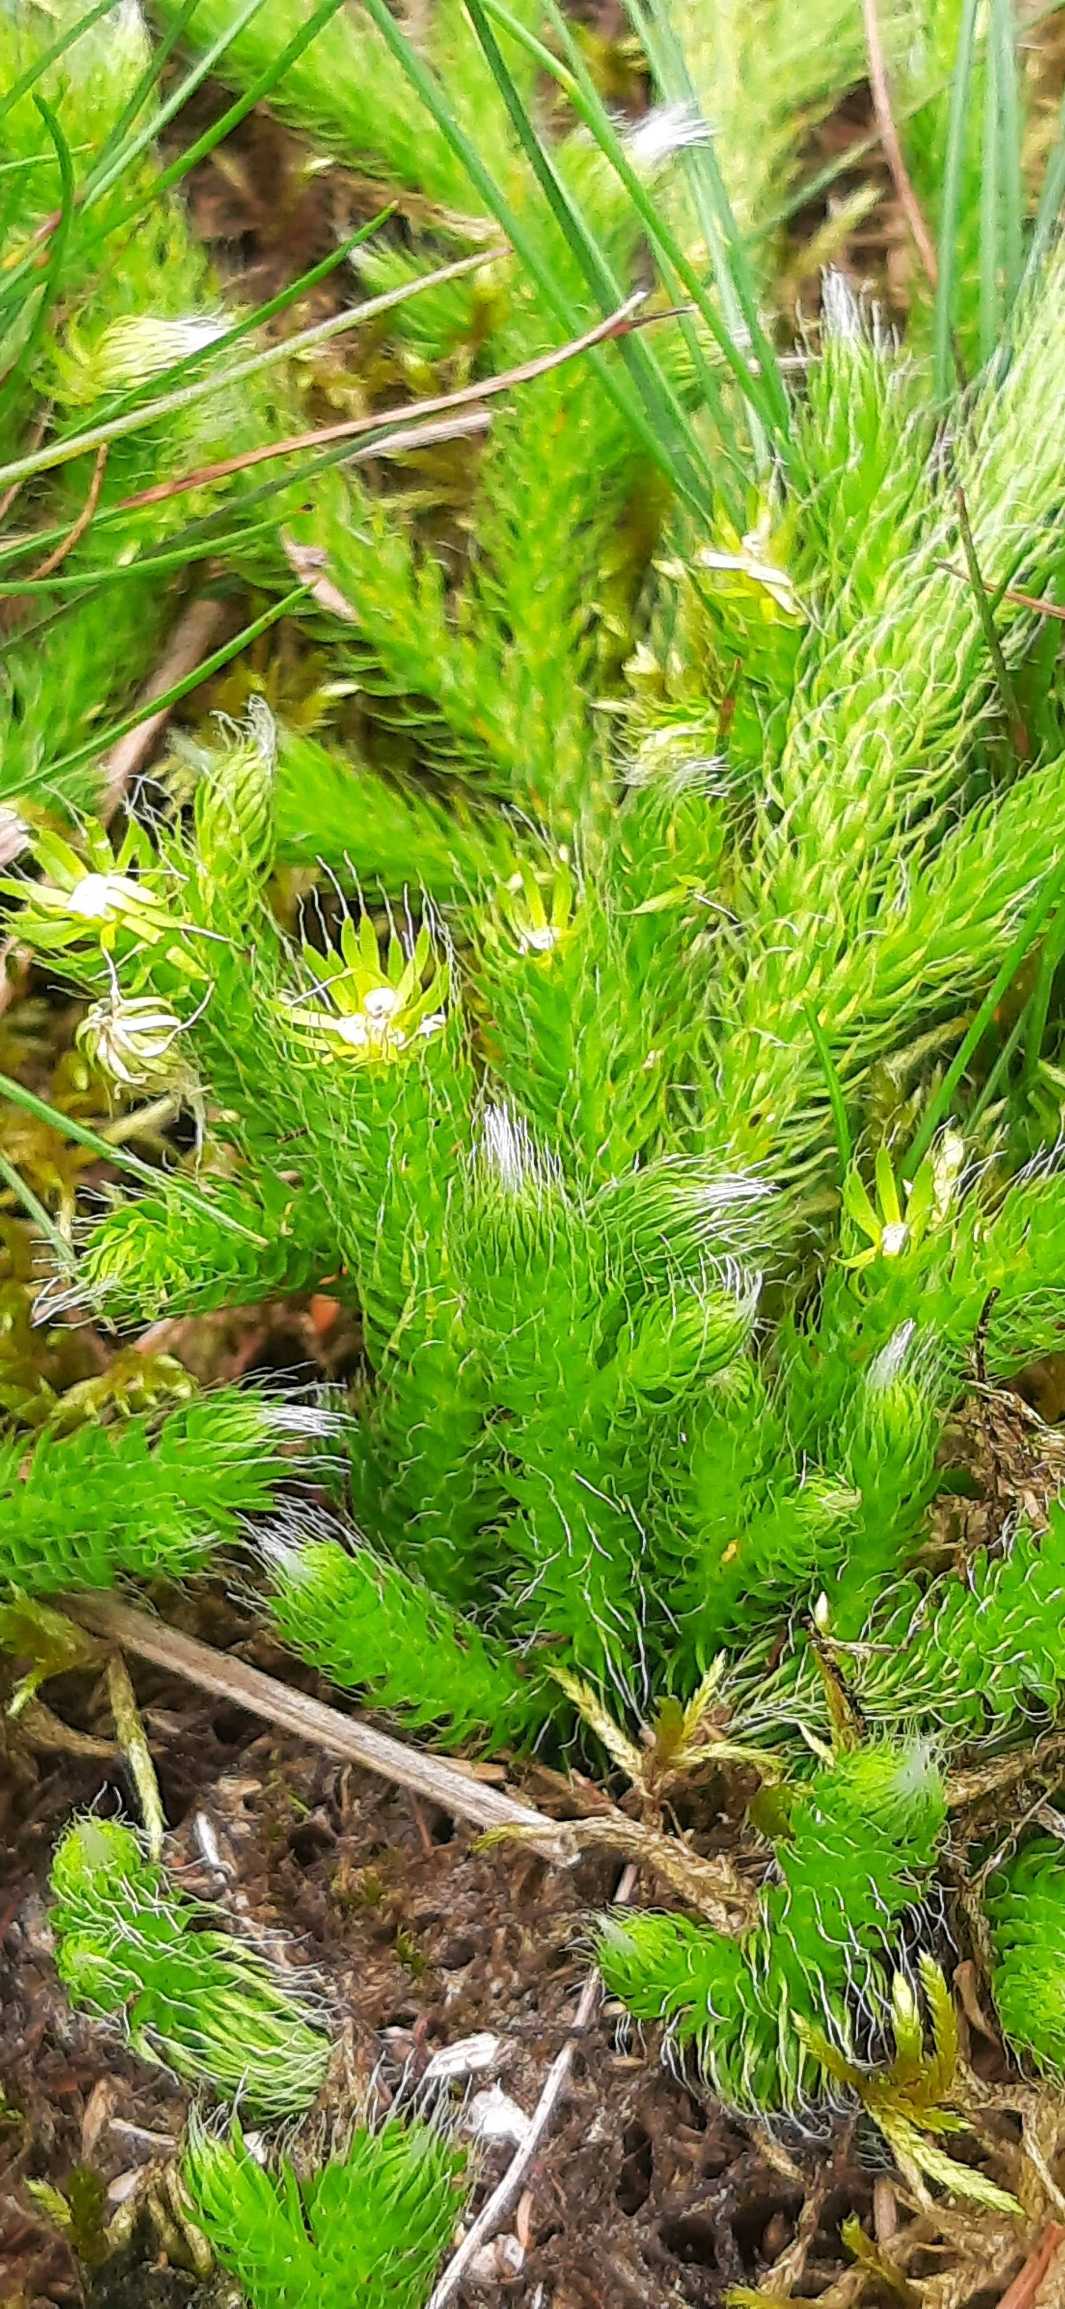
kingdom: Plantae
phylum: Tracheophyta
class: Lycopodiopsida
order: Lycopodiales
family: Lycopodiaceae
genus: Lycopodium
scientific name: Lycopodium clavatum
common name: Almindelig ulvefod
